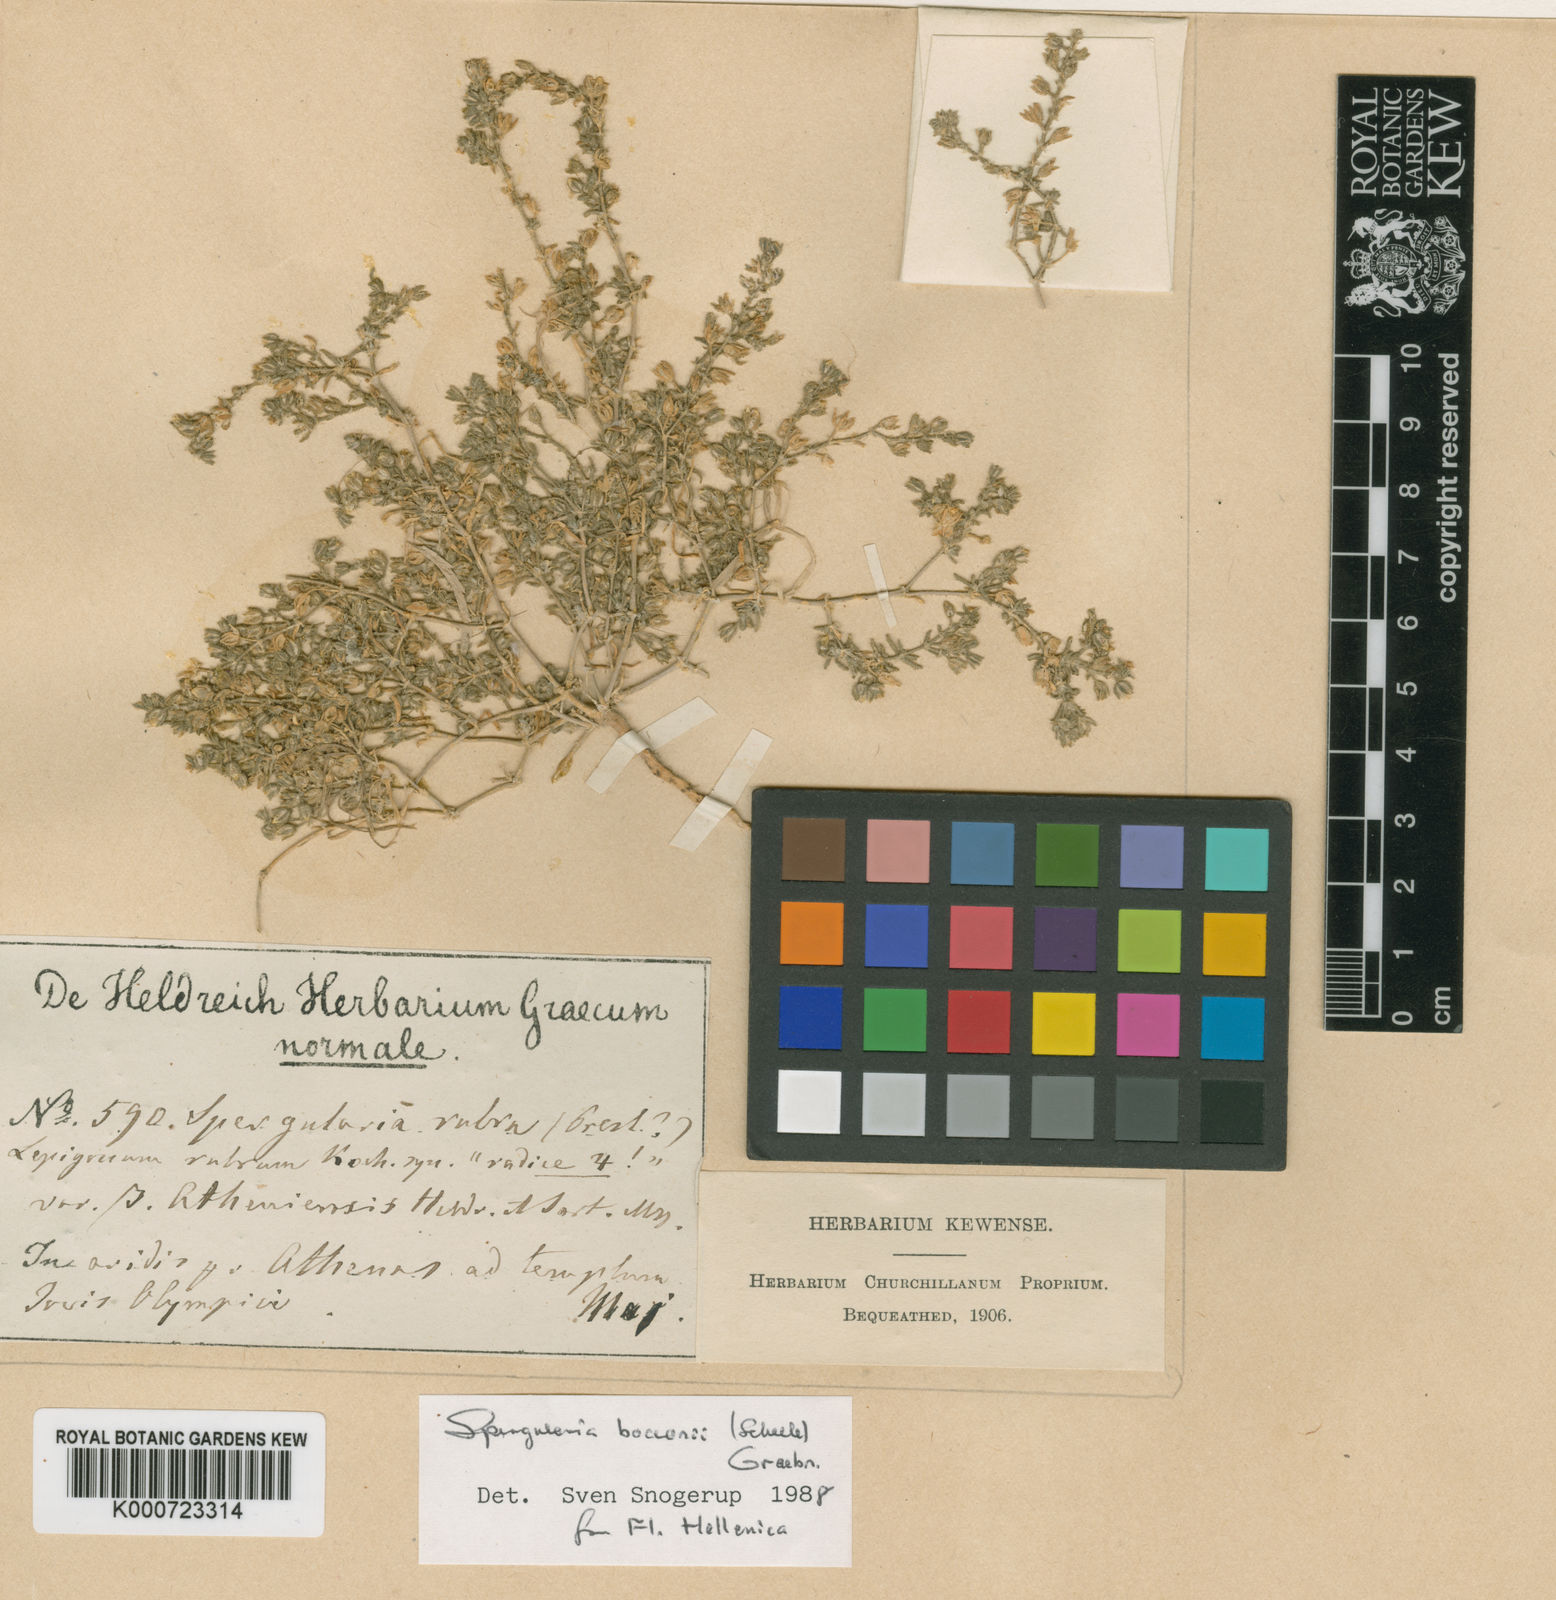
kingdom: Plantae
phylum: Tracheophyta
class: Magnoliopsida
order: Caryophyllales
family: Caryophyllaceae
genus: Spergularia
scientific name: Spergularia bocconei
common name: Greek sea-spurrey
